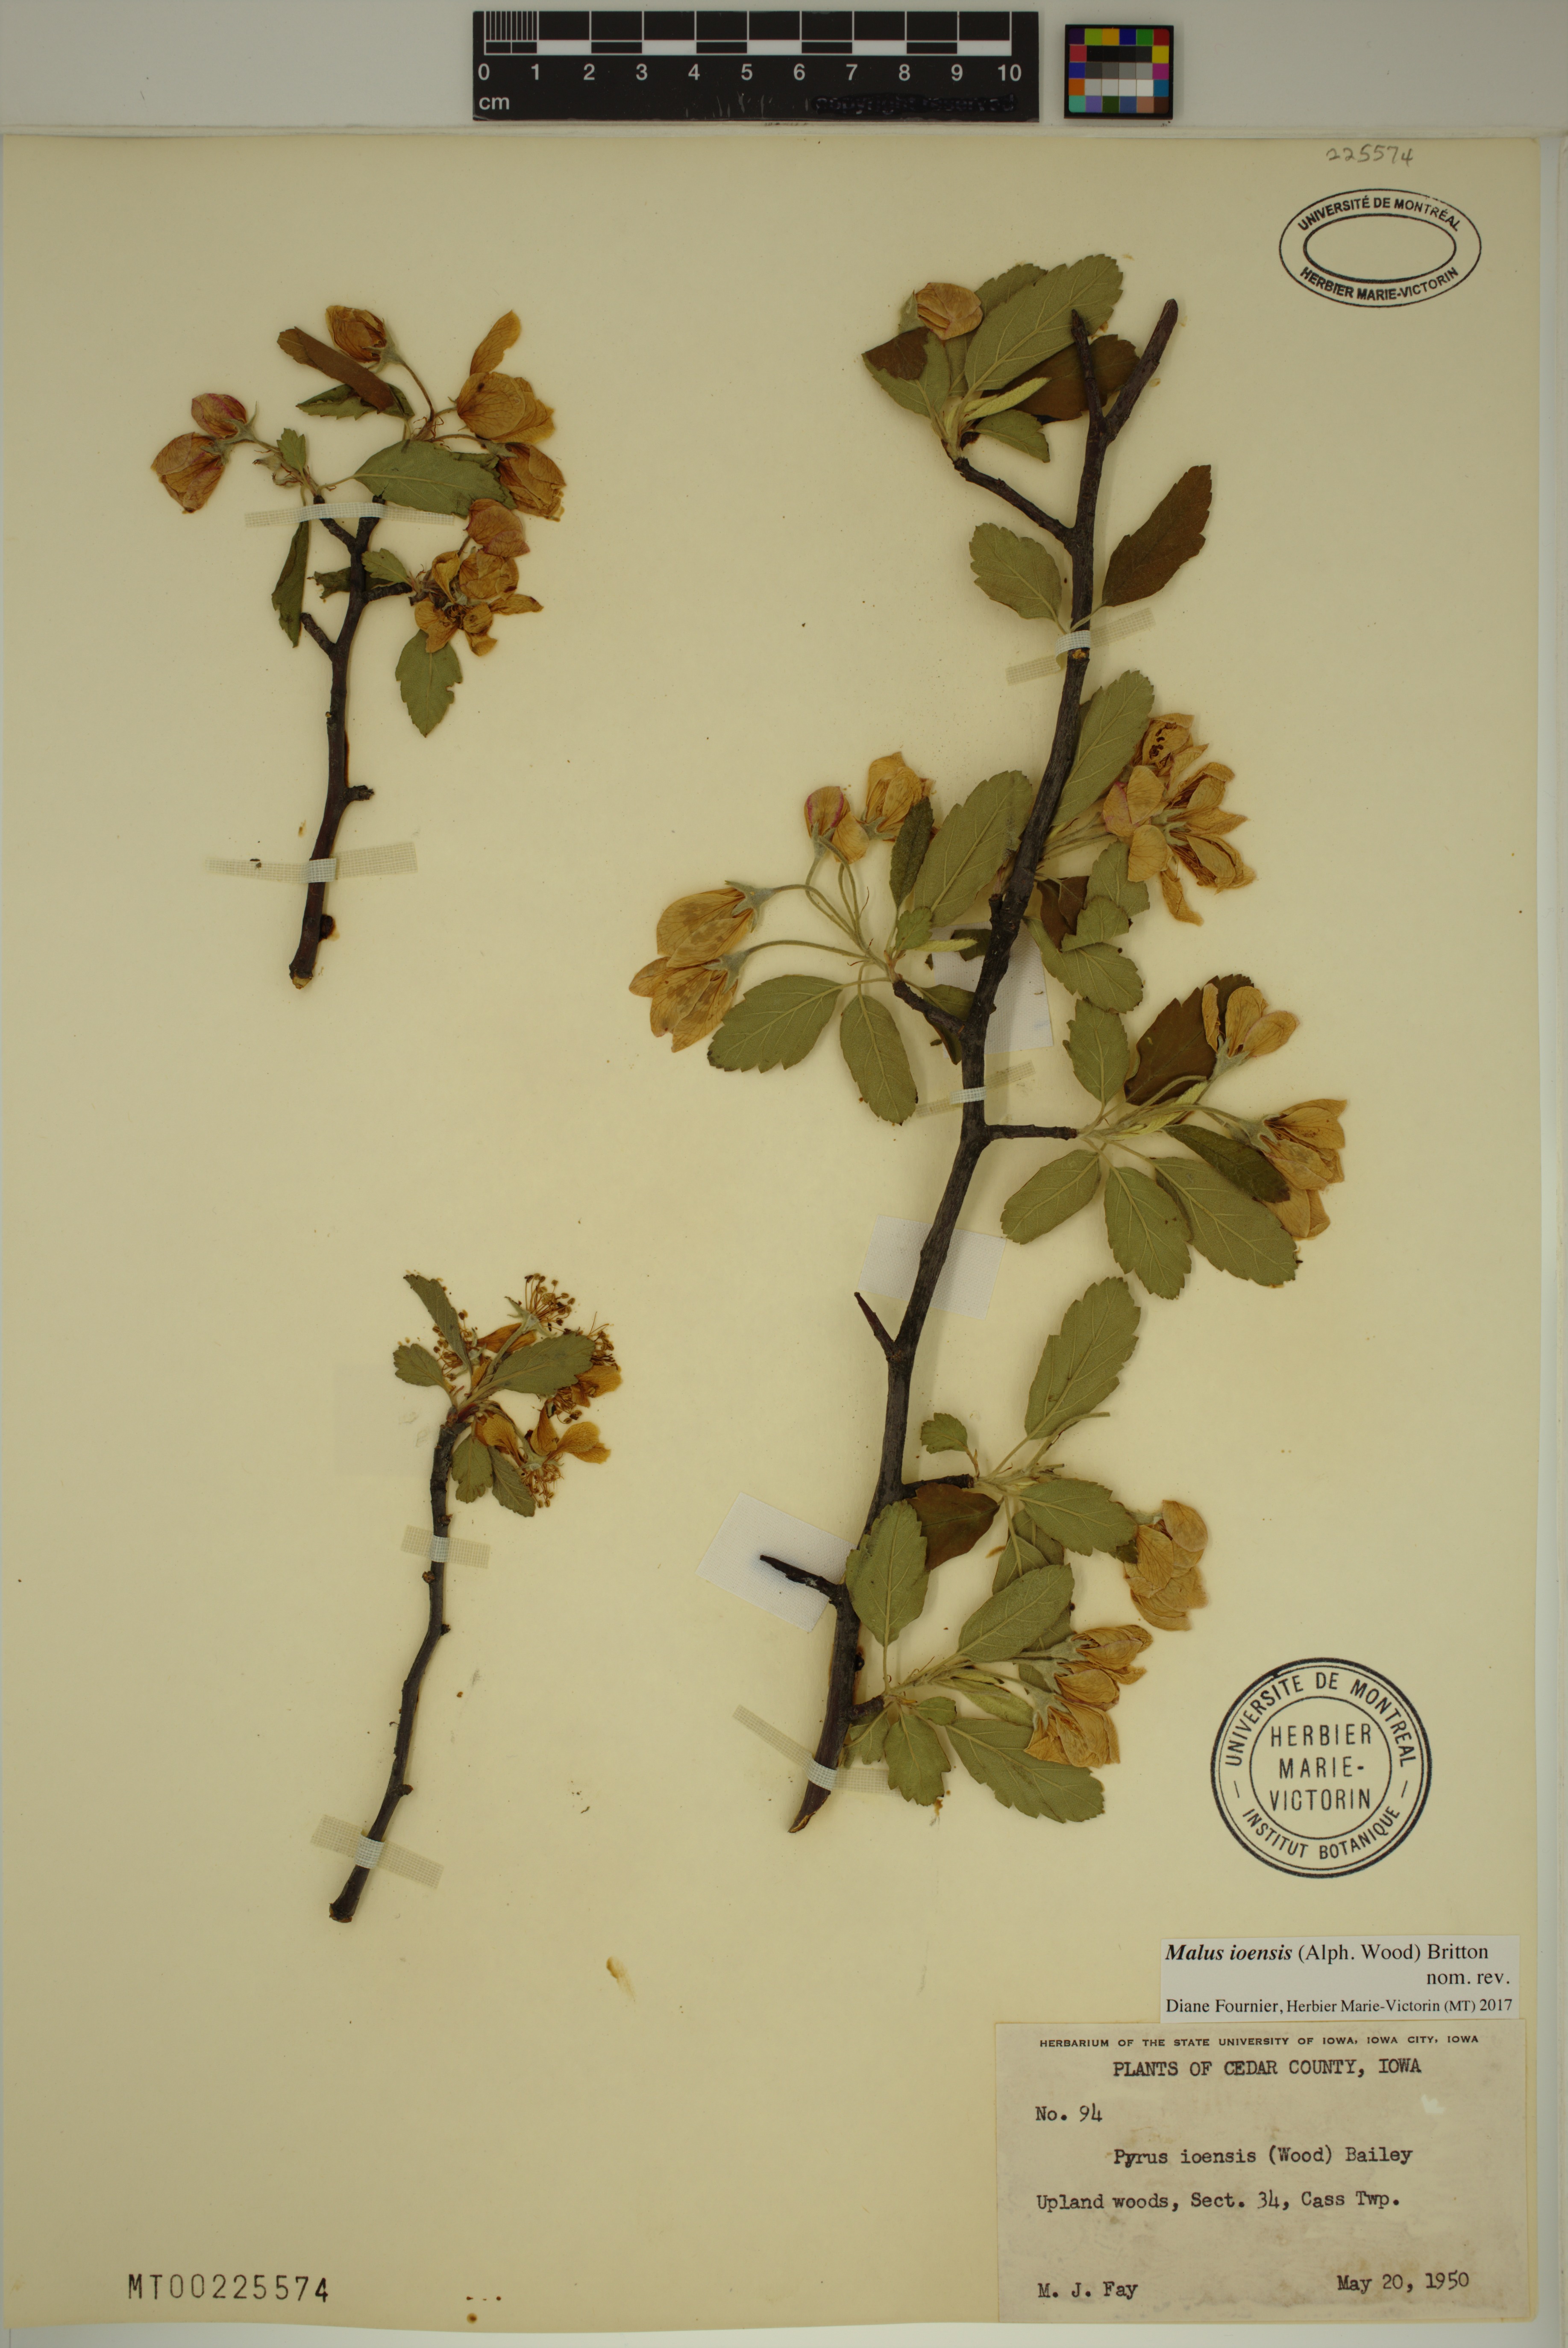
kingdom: Plantae
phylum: Tracheophyta
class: Magnoliopsida
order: Rosales
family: Rosaceae
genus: Malus
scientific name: Malus ioensis
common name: Iowa crab apple
